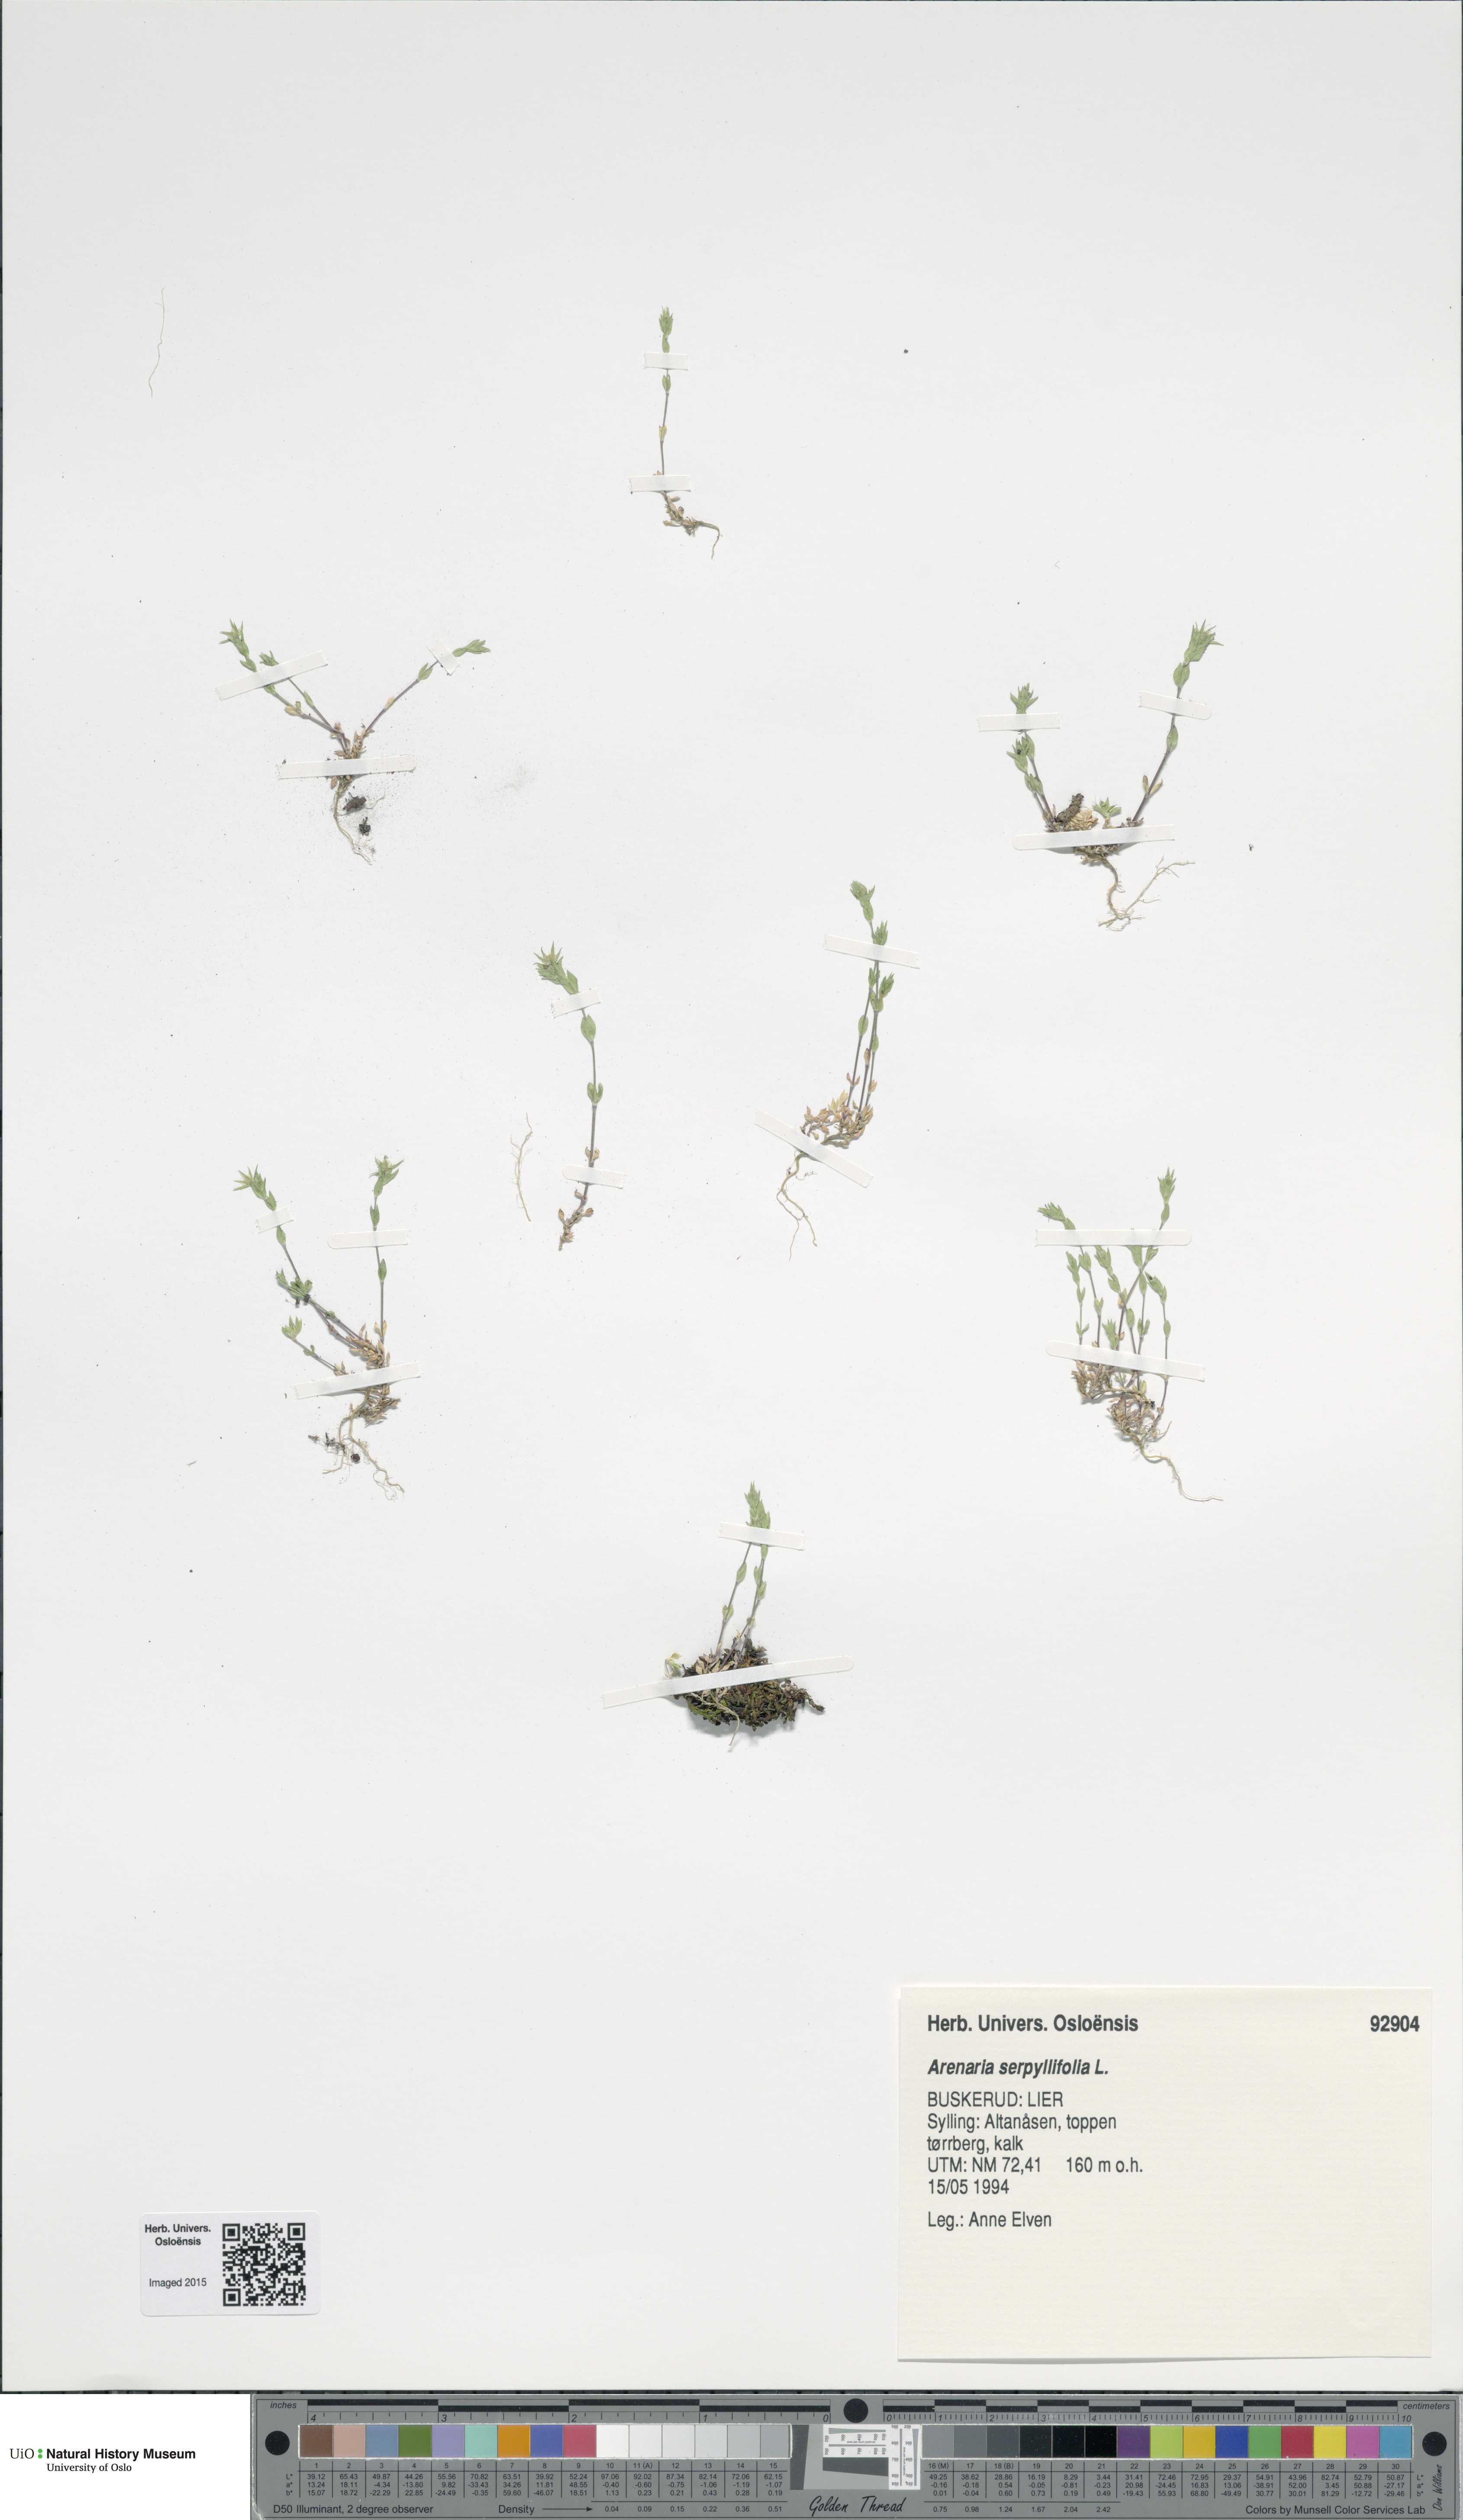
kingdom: Plantae
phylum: Tracheophyta
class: Magnoliopsida
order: Caryophyllales
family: Caryophyllaceae
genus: Arenaria
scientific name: Arenaria serpyllifolia
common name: Thyme-leaved sandwort
